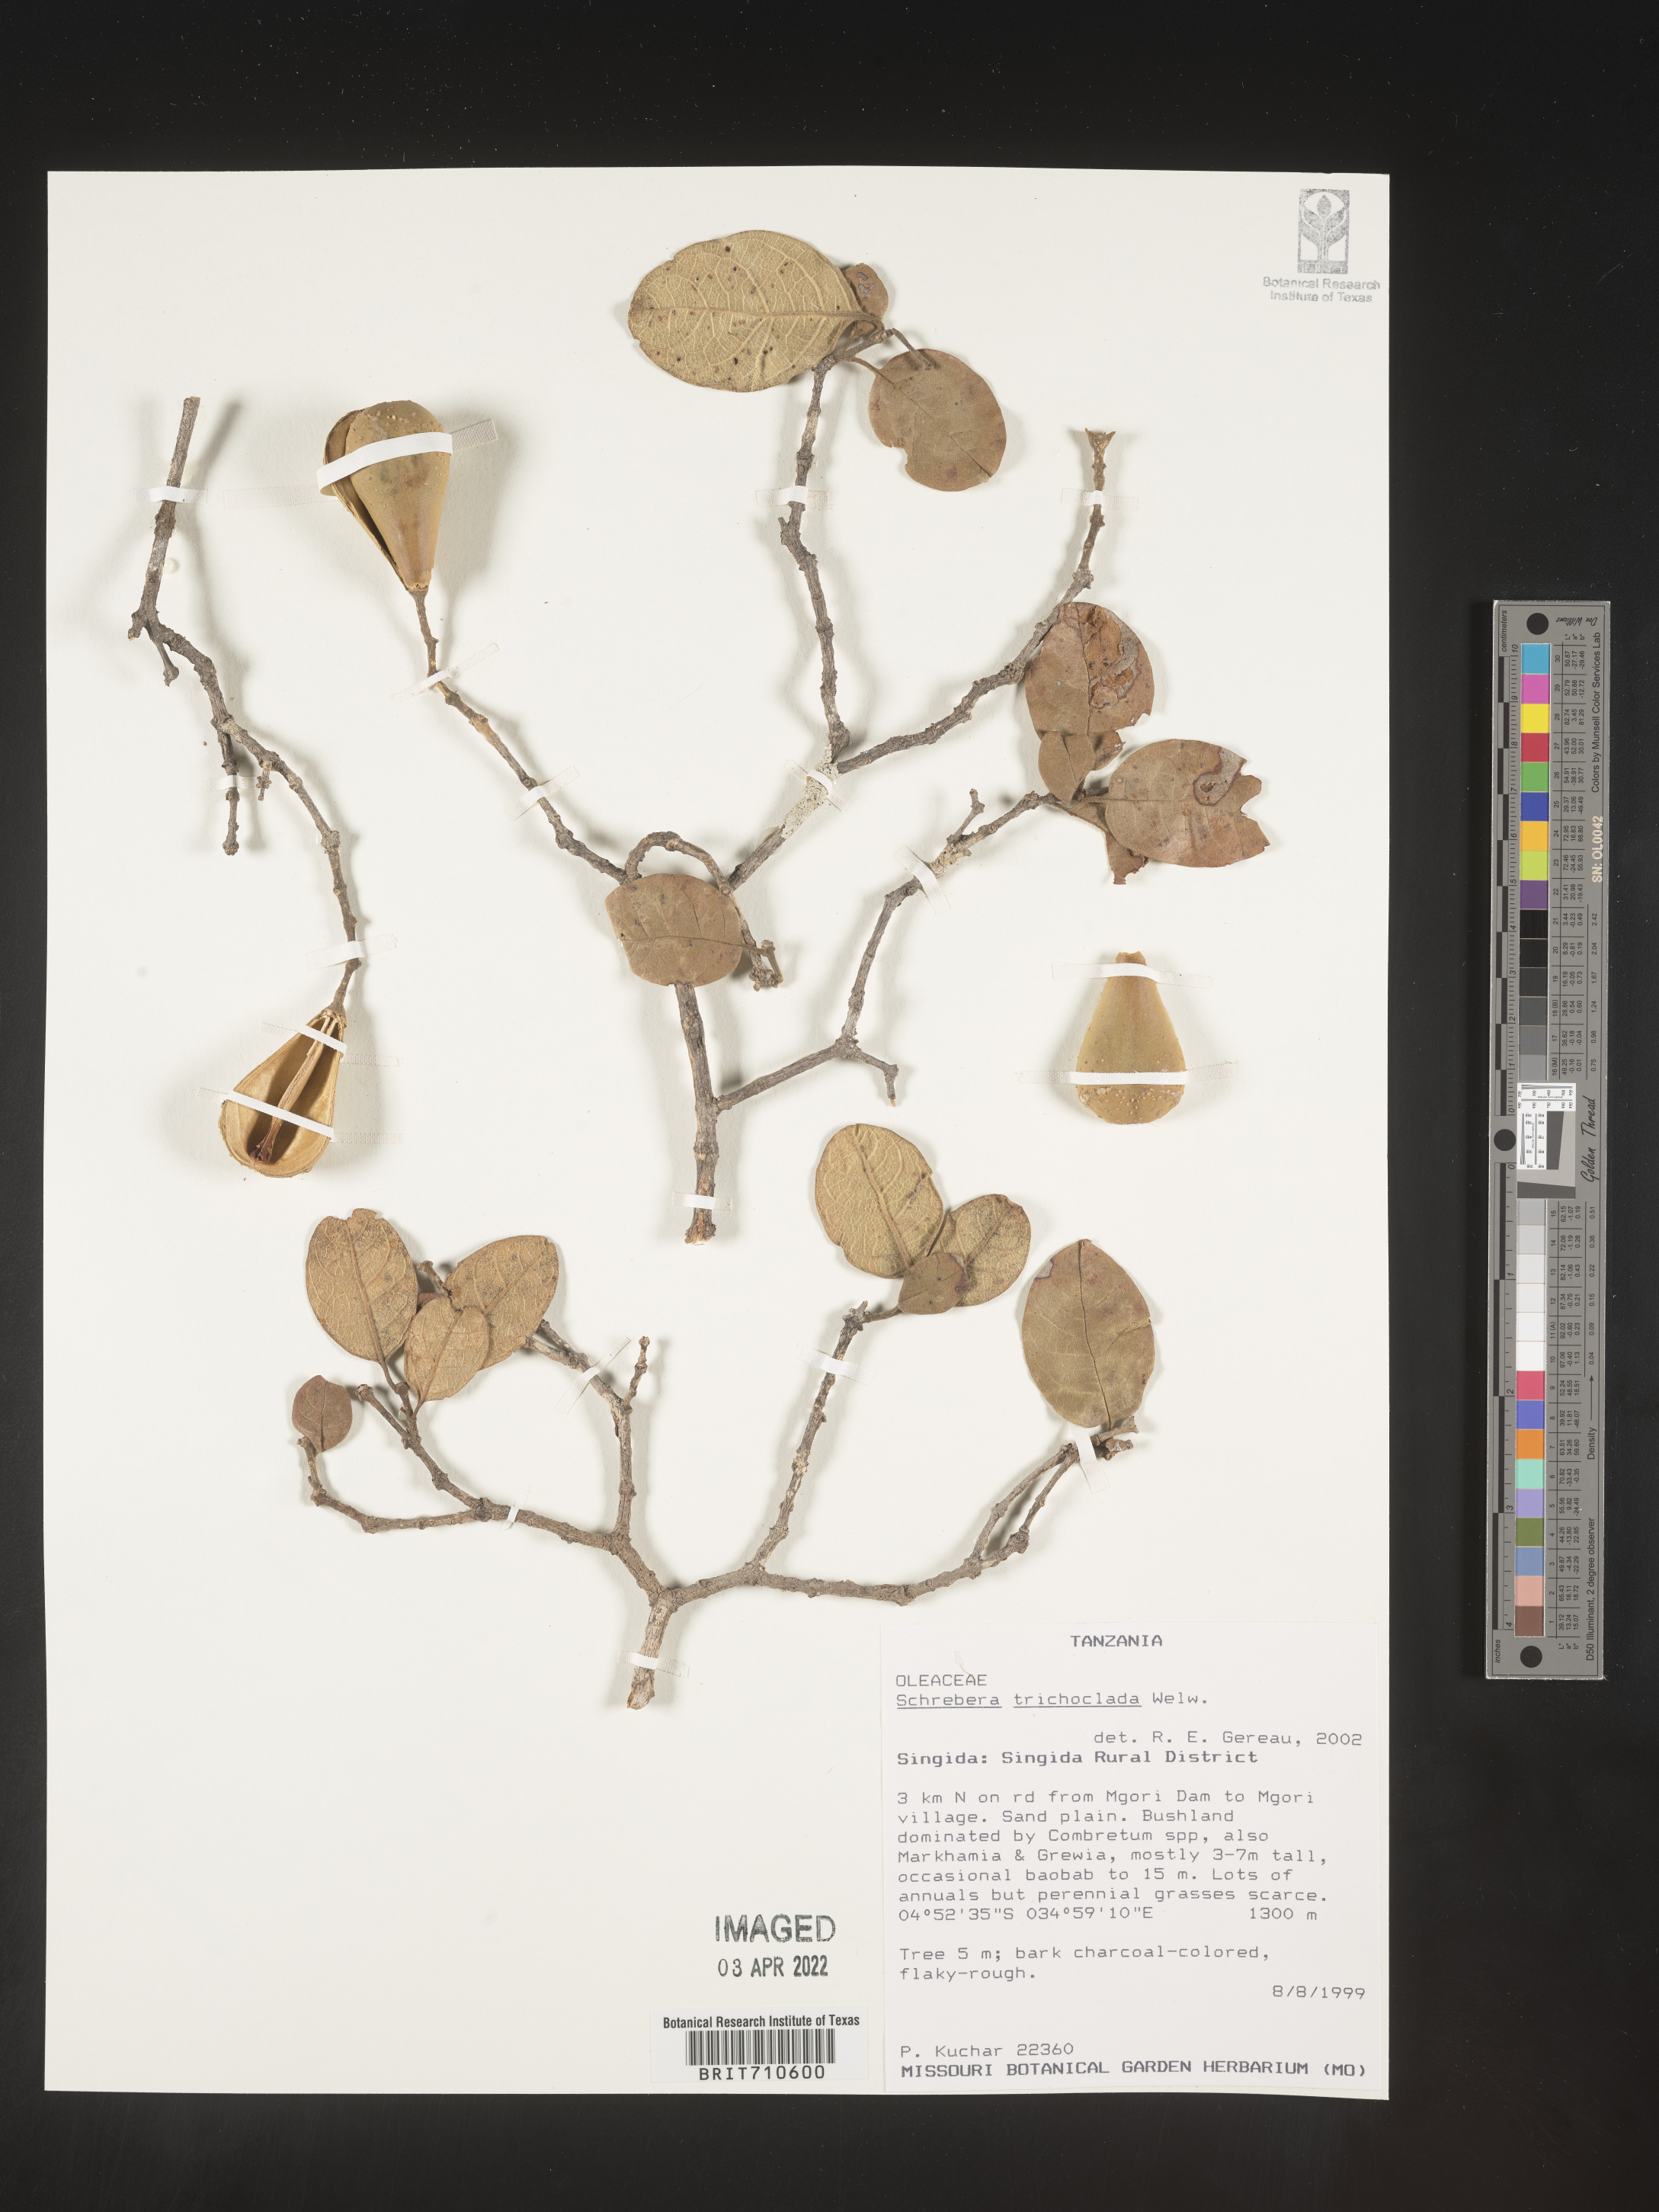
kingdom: Plantae
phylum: Tracheophyta
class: Magnoliopsida
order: Lamiales
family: Oleaceae
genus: Schrebera
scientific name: Schrebera trichoclada
